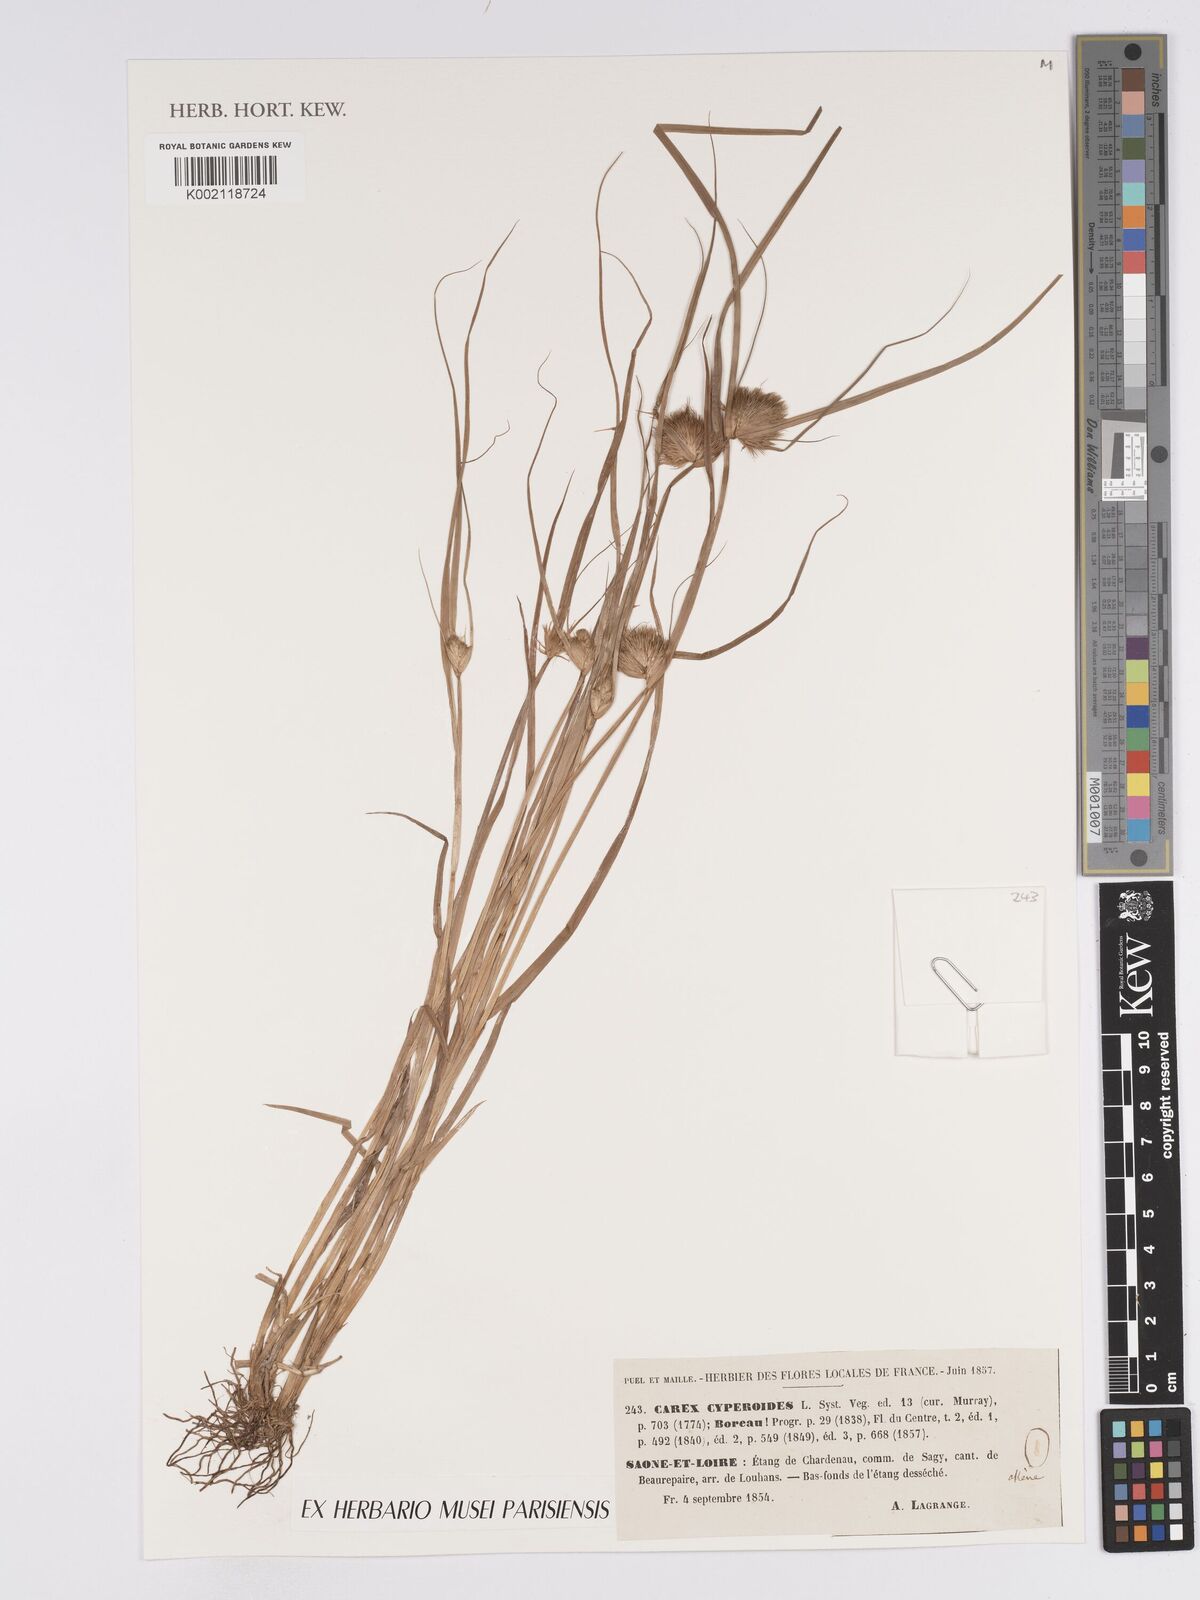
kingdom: Plantae
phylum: Tracheophyta
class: Liliopsida
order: Poales
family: Cyperaceae
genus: Carex
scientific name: Carex bohemica
